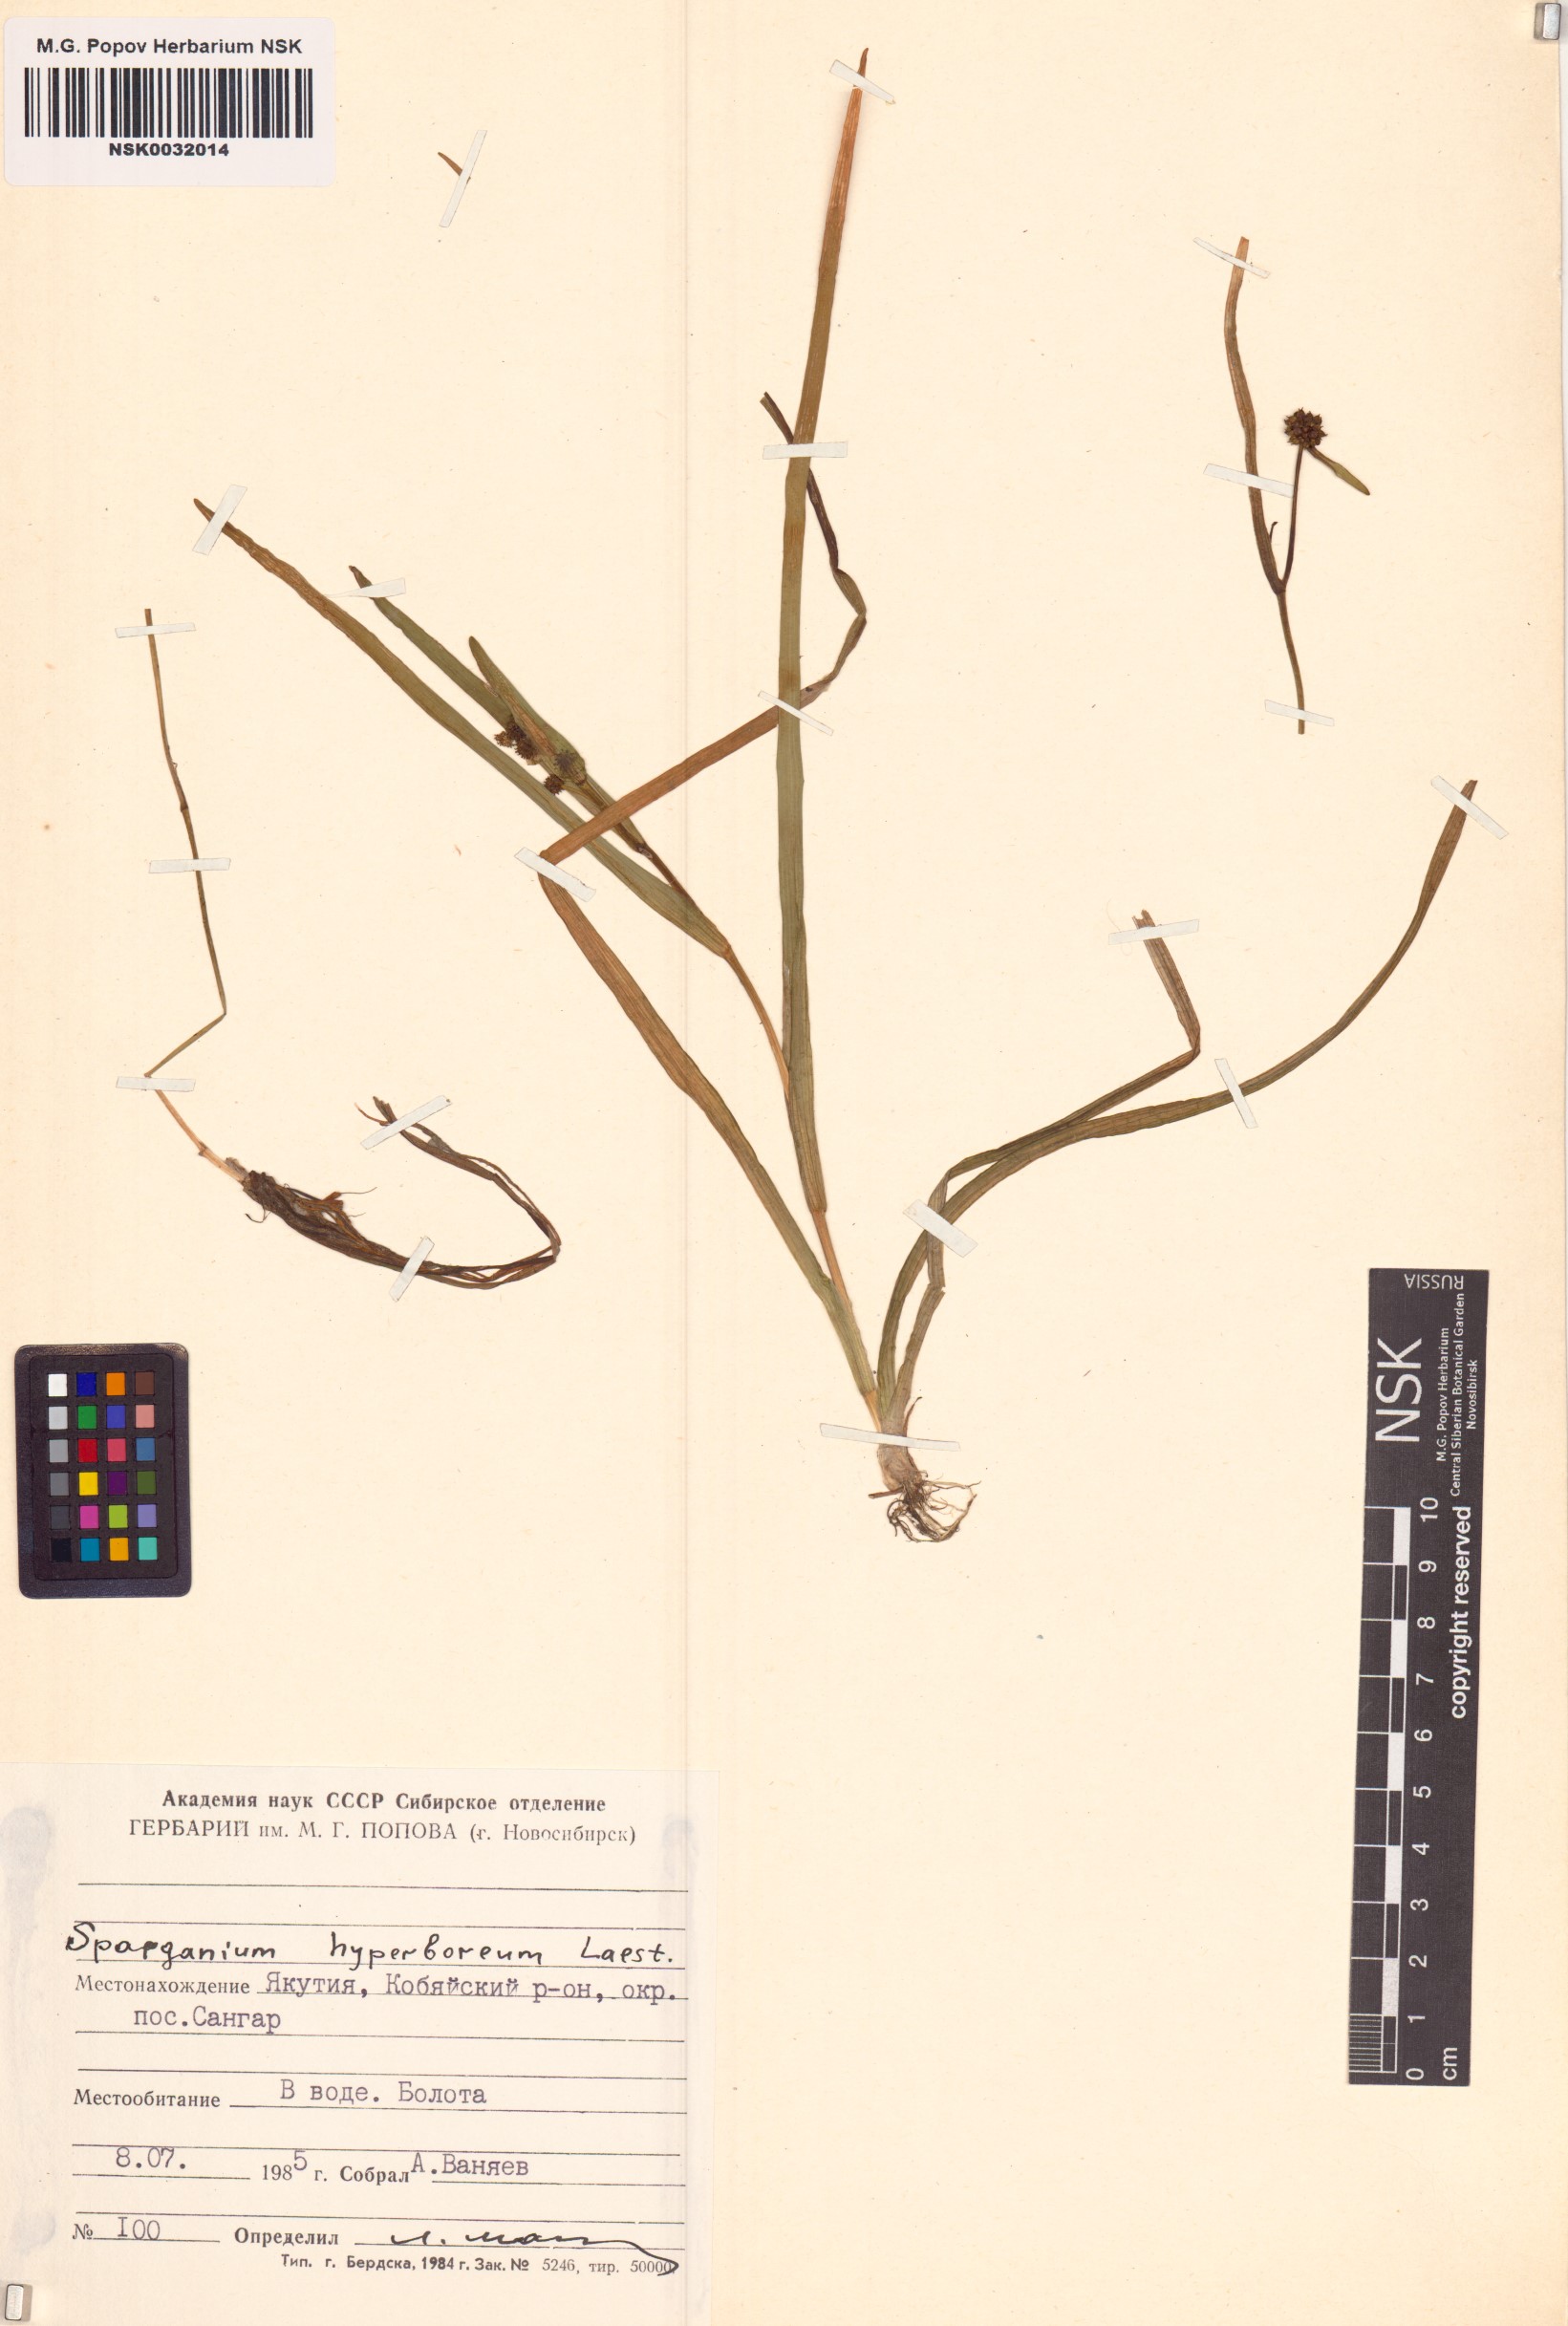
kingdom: Plantae
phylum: Tracheophyta
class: Liliopsida
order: Poales
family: Typhaceae
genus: Sparganium
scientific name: Sparganium hyperboreum
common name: Arctic burreed
